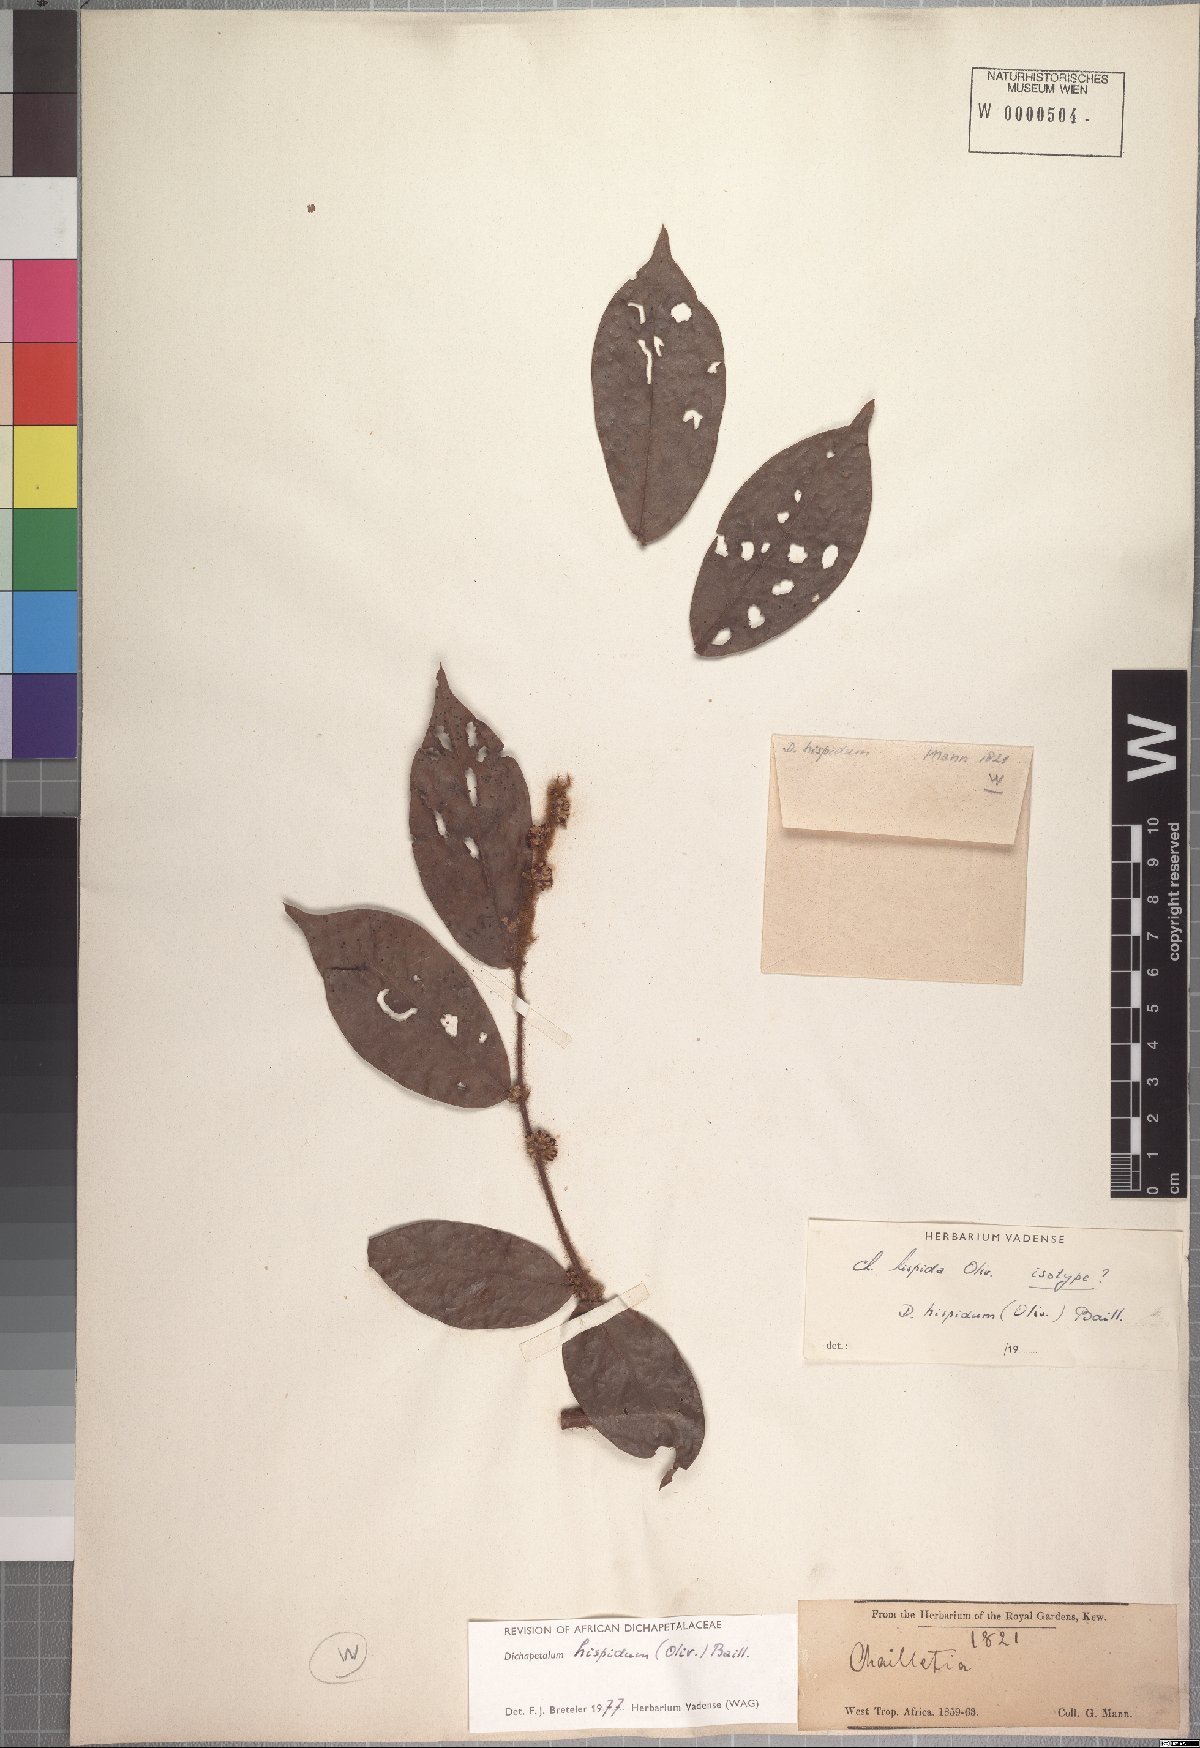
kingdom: Plantae
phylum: Tracheophyta
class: Magnoliopsida
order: Malpighiales
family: Dichapetalaceae
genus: Dichapetalum
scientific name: Dichapetalum heudelotii
